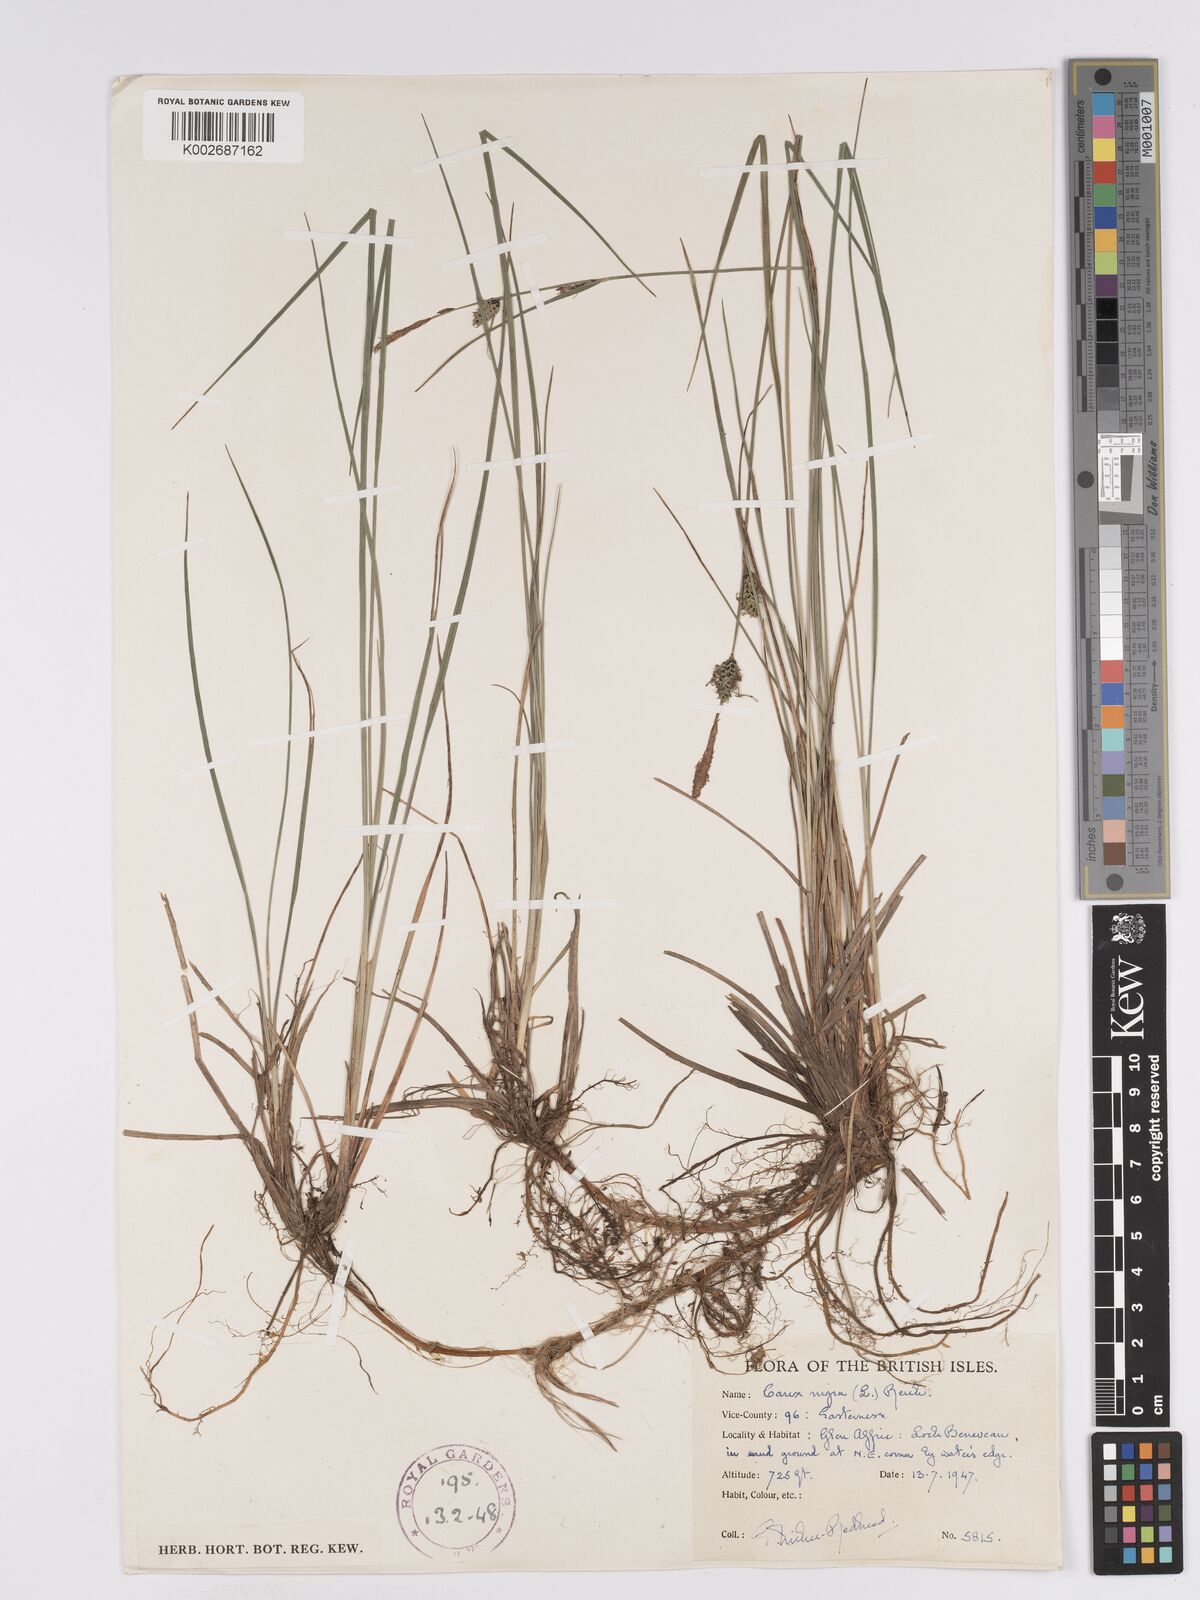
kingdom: Plantae
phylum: Tracheophyta
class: Liliopsida
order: Poales
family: Cyperaceae
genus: Carex
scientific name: Carex nigra
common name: Common sedge
